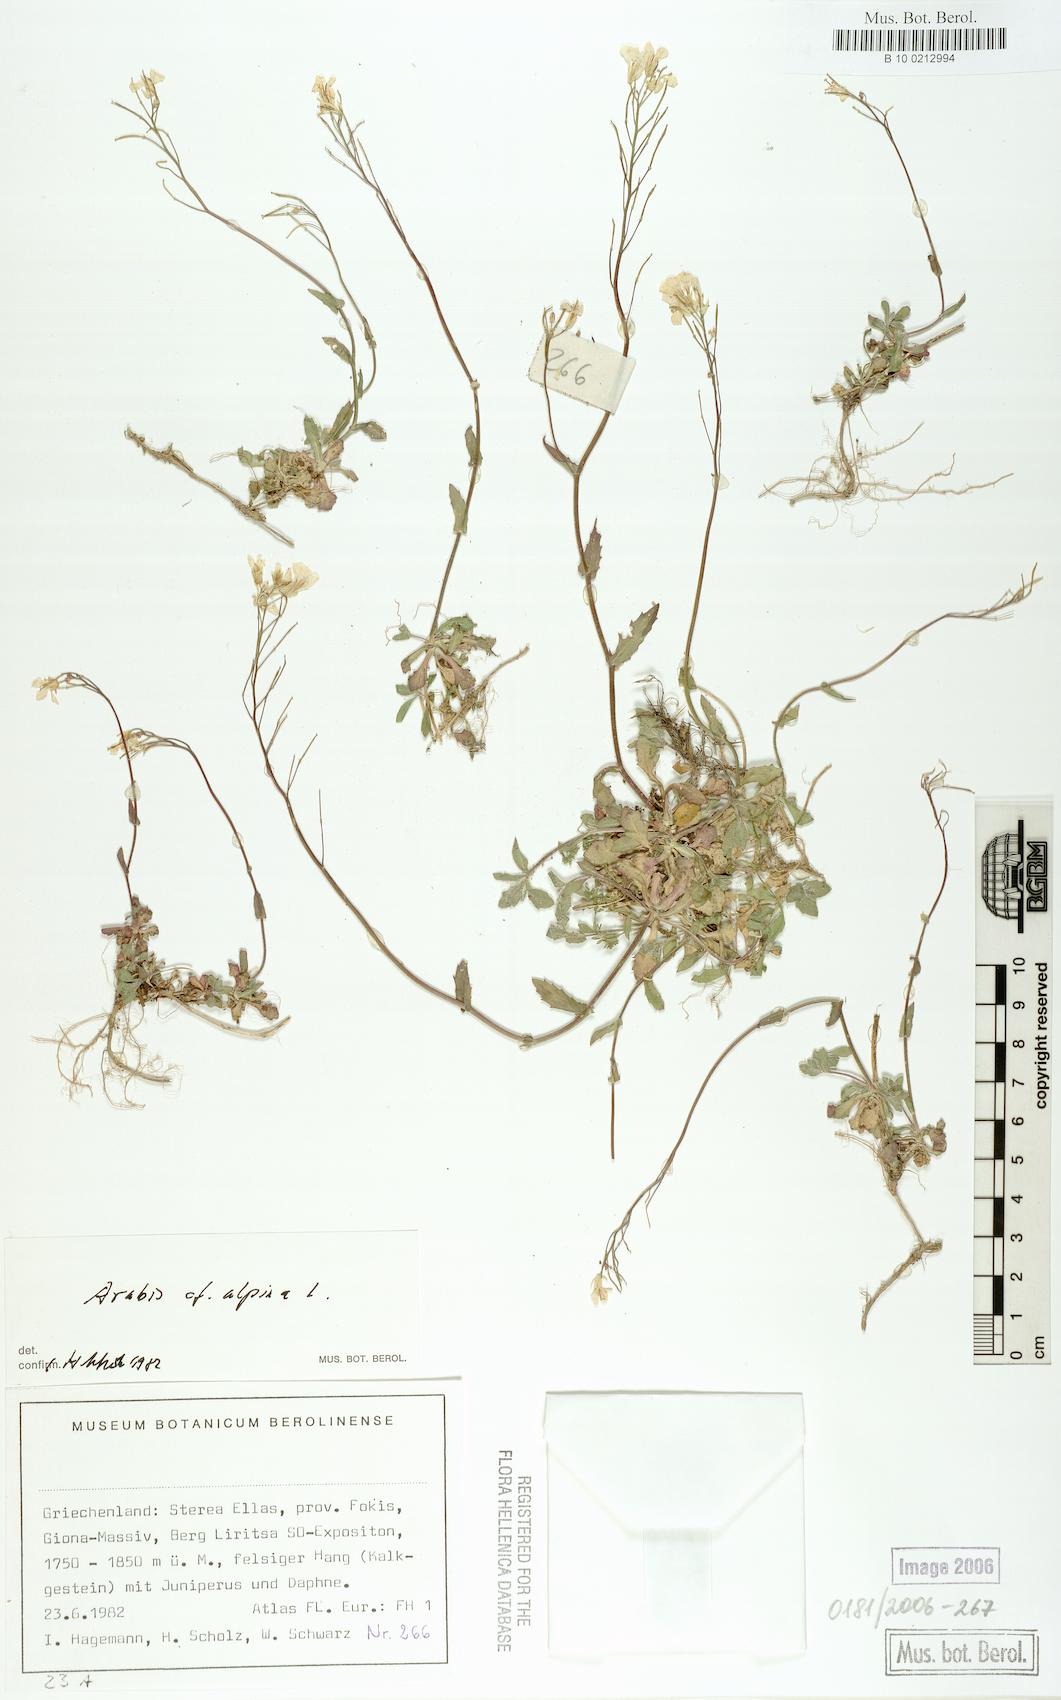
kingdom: Plantae
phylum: Tracheophyta
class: Magnoliopsida
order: Brassicales
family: Brassicaceae
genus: Arabis
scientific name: Arabis alpina
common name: Alpine rock-cress
